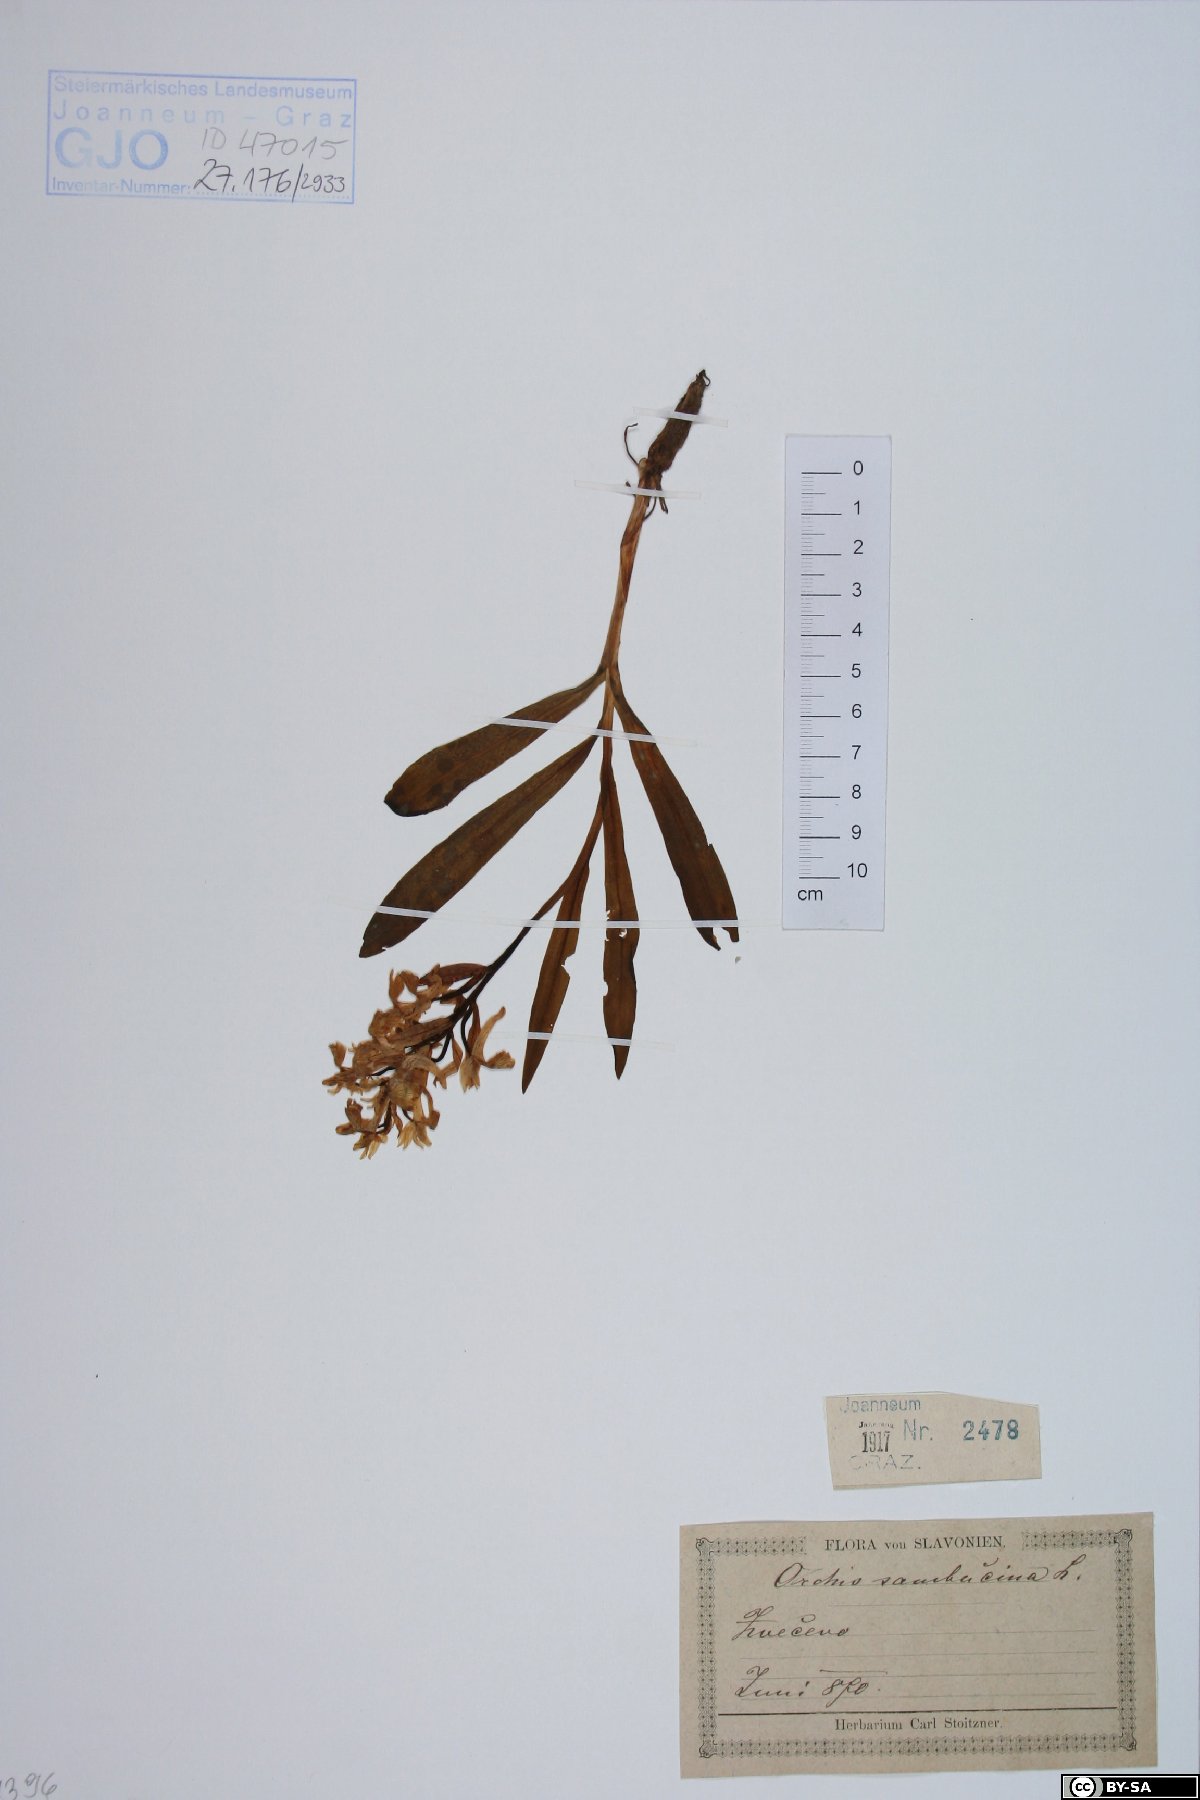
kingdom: Plantae
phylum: Tracheophyta
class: Liliopsida
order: Asparagales
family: Orchidaceae
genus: Dactylorhiza
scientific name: Dactylorhiza sambucina
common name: Elder-flowered orchid
